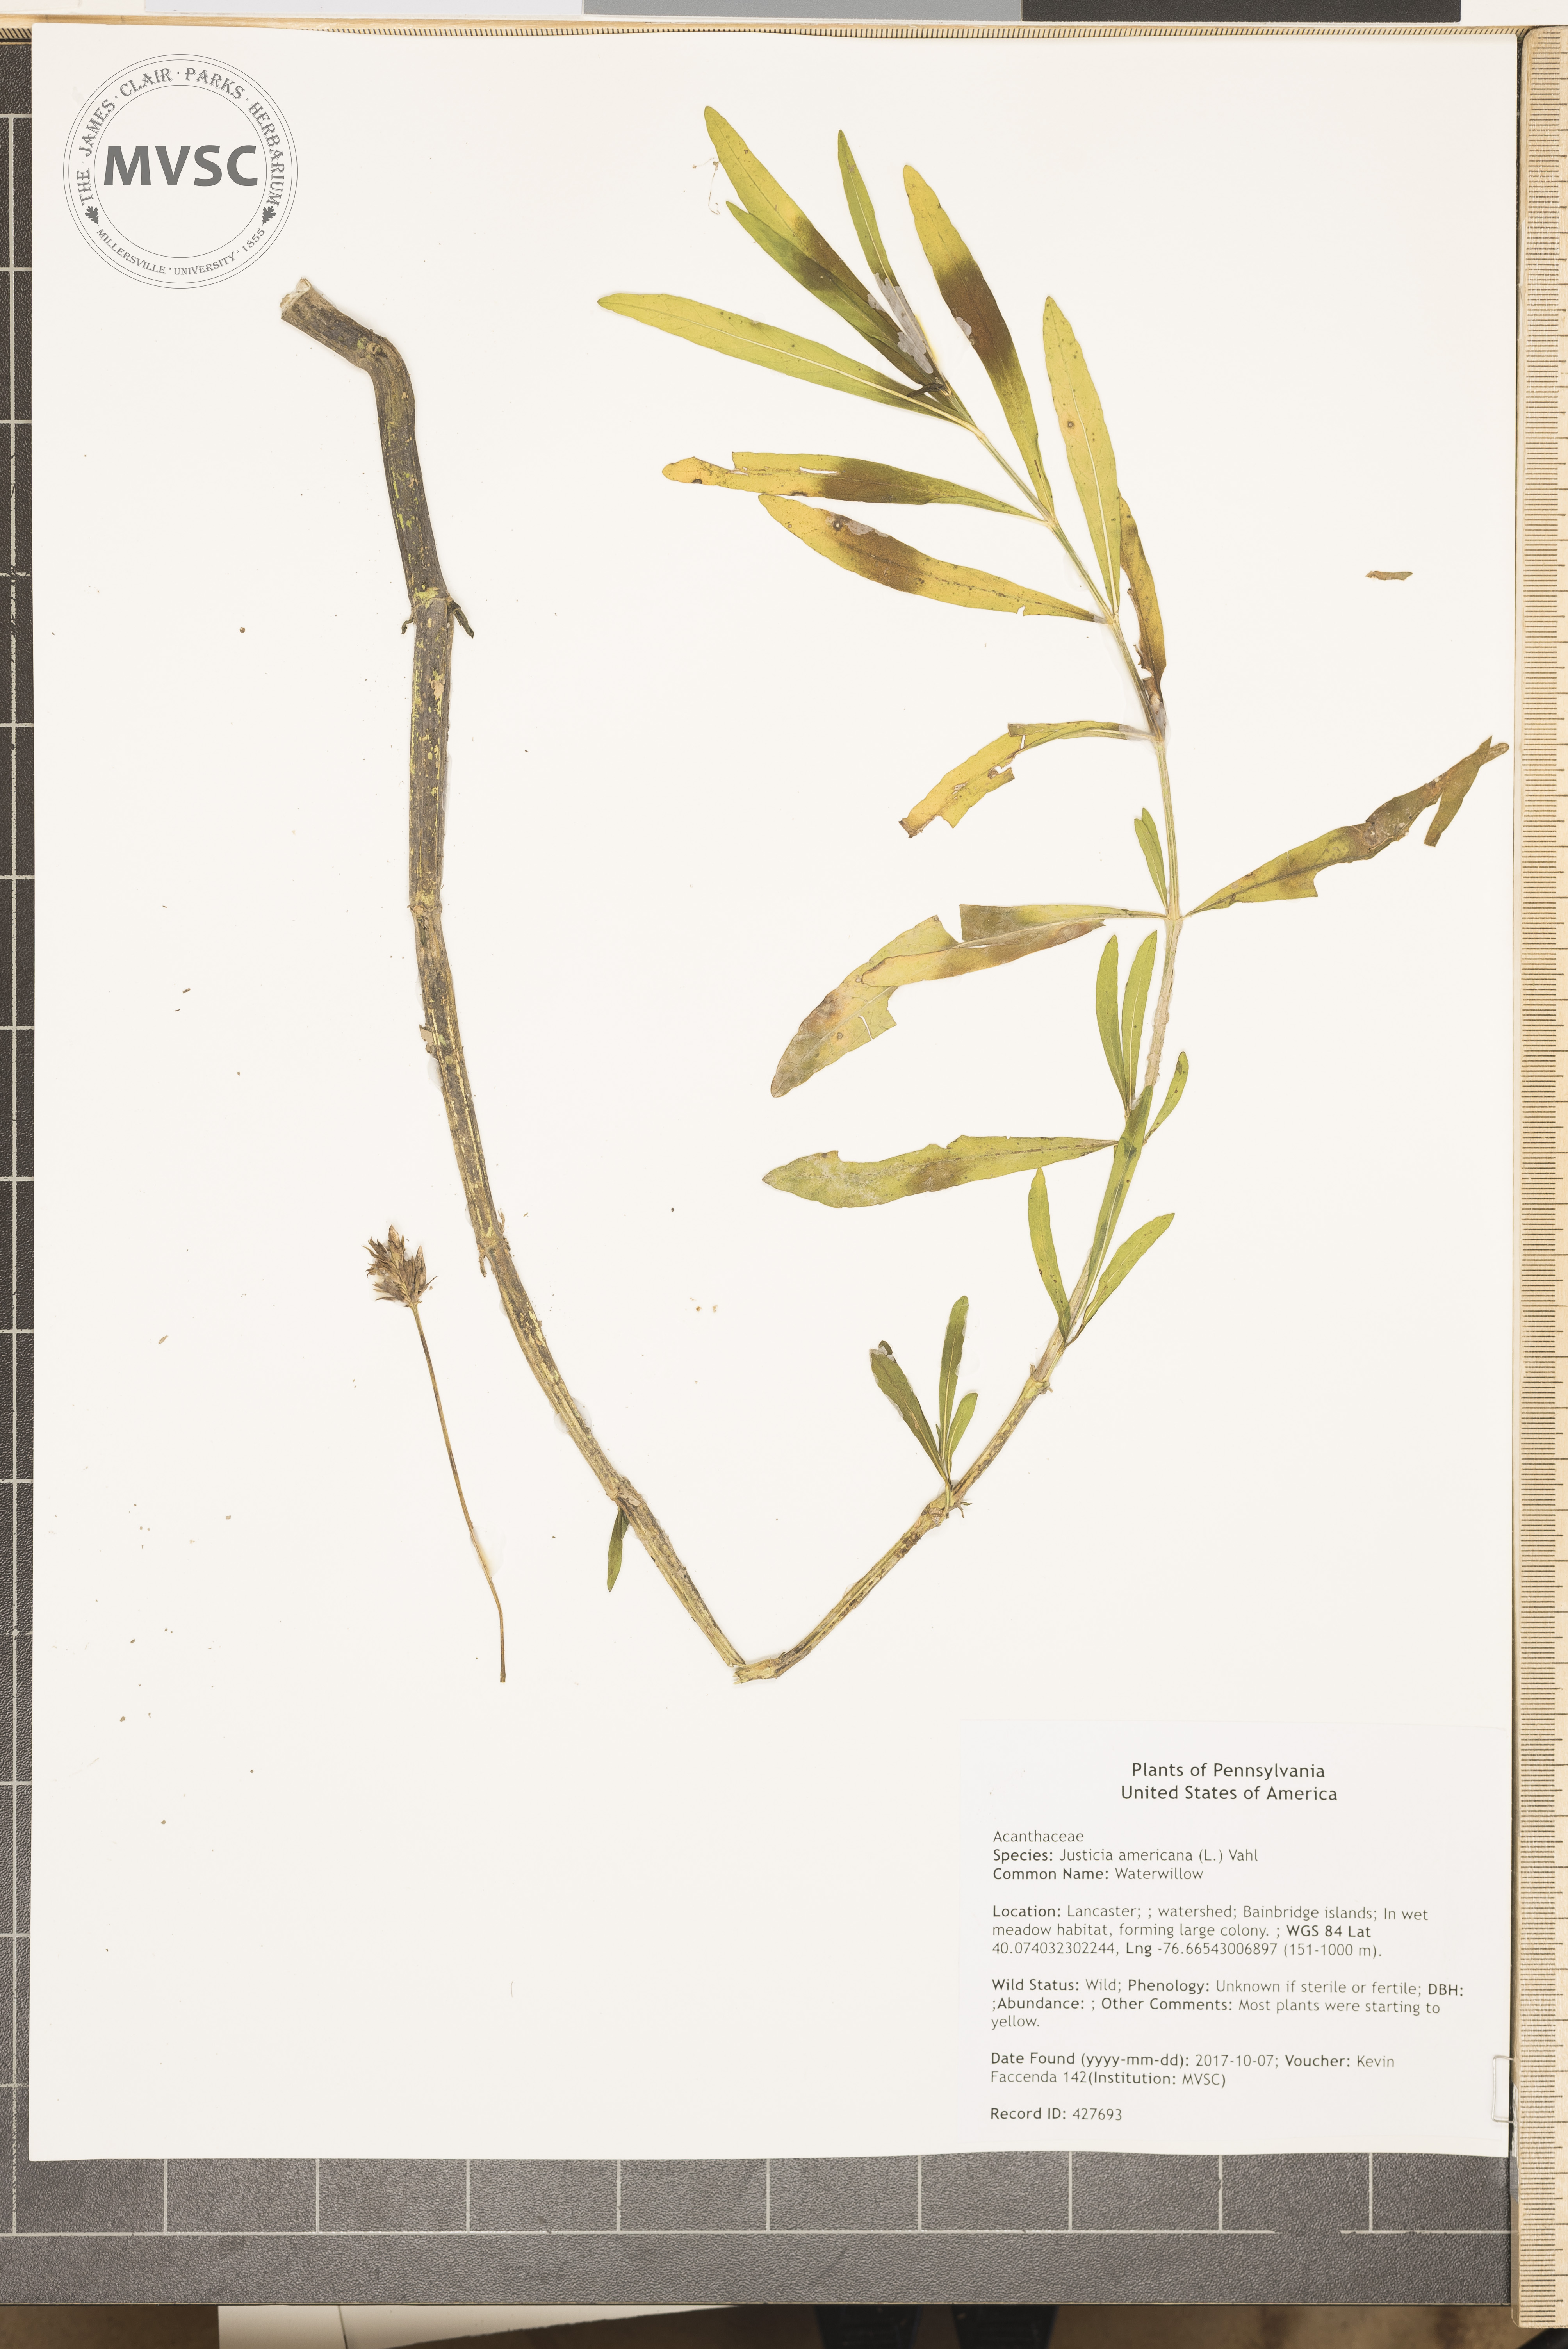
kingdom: Plantae
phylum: Tracheophyta
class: Magnoliopsida
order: Lamiales
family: Acanthaceae
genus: Dianthera
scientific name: Dianthera americana
